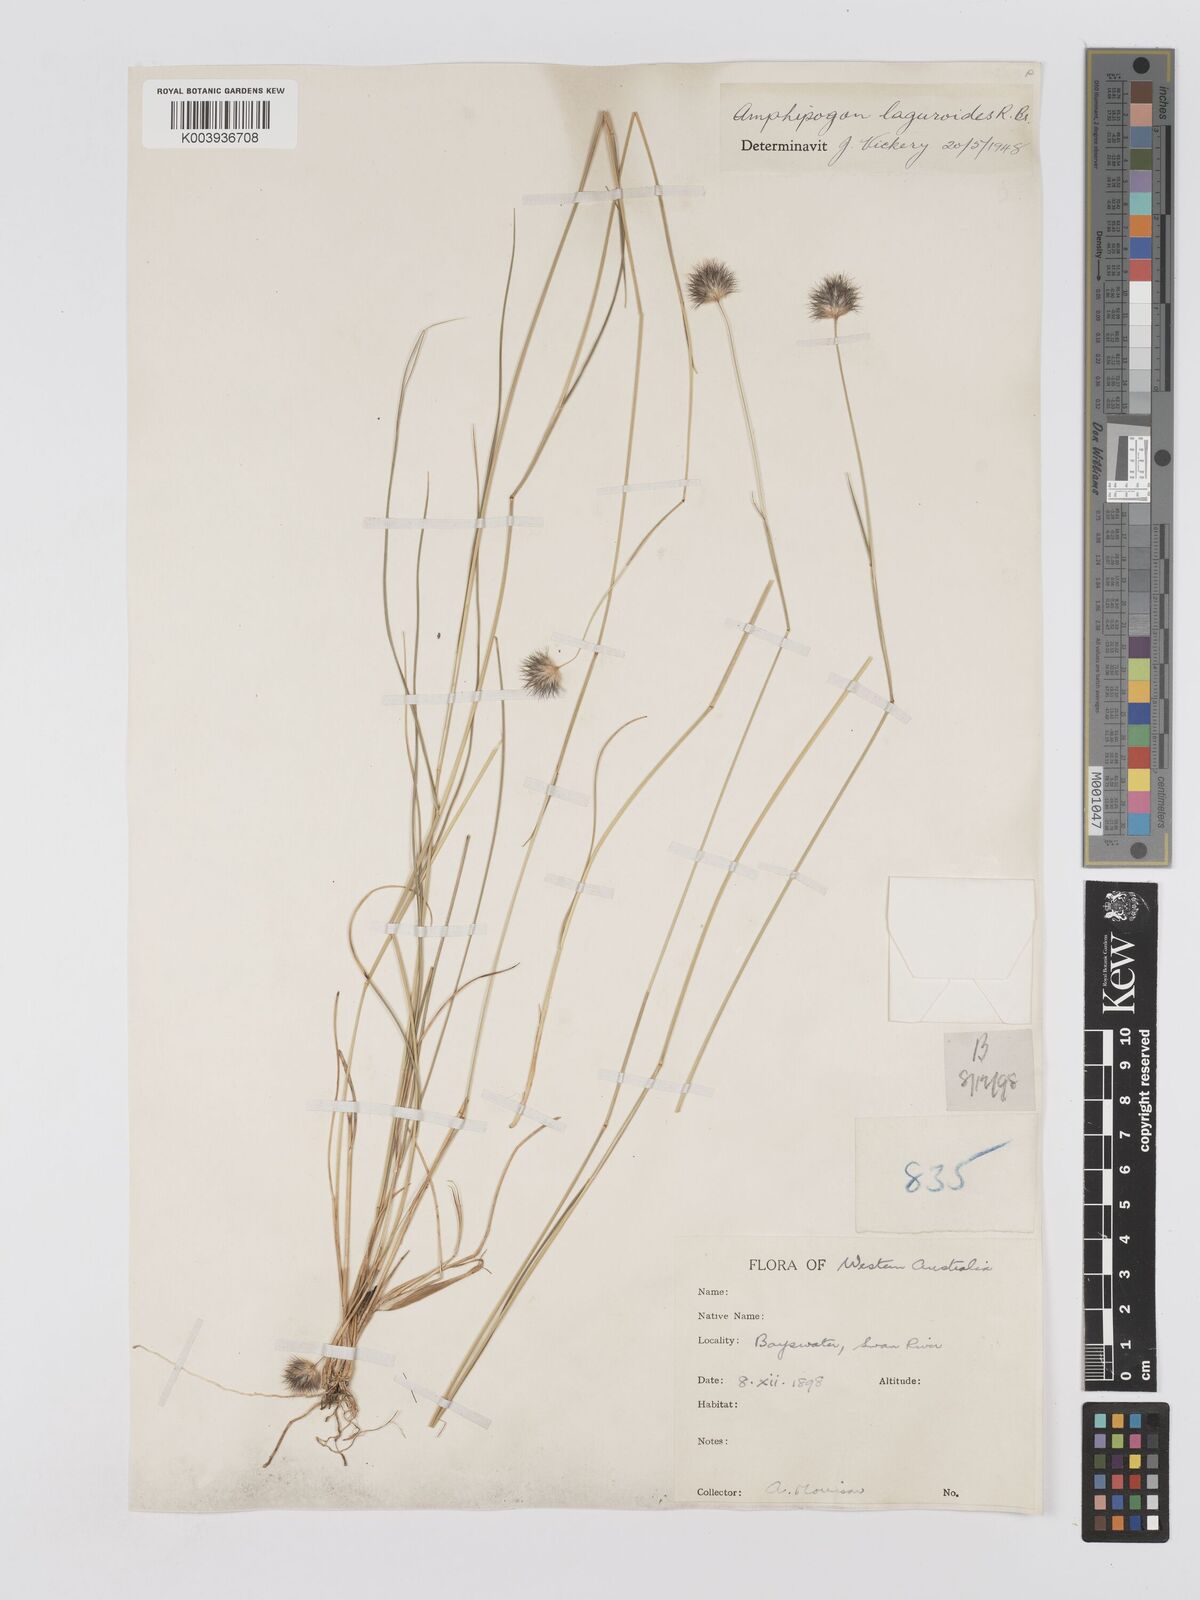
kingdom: Plantae
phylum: Tracheophyta
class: Liliopsida
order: Poales
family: Poaceae
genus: Amphipogon
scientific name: Amphipogon laguroides
